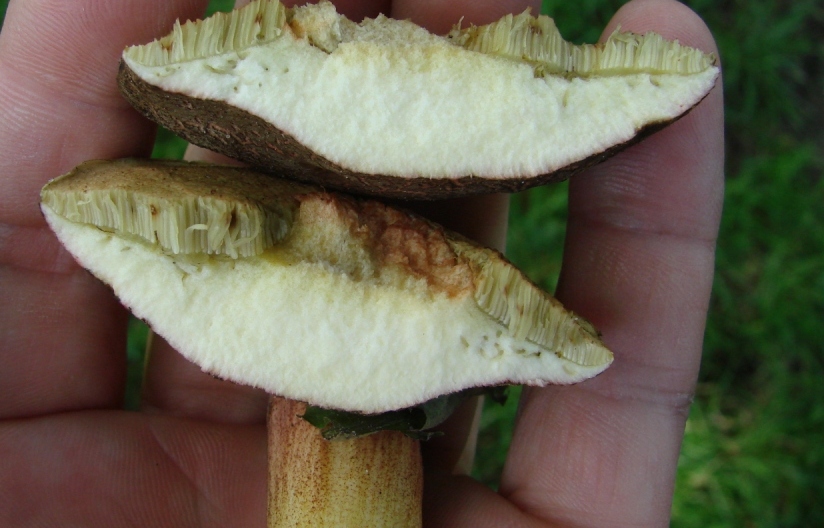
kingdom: Fungi
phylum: Basidiomycota
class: Agaricomycetes
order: Boletales
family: Boletaceae
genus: Xerocomellus
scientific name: Xerocomellus chrysenteron
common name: rødsprukken rørhat
